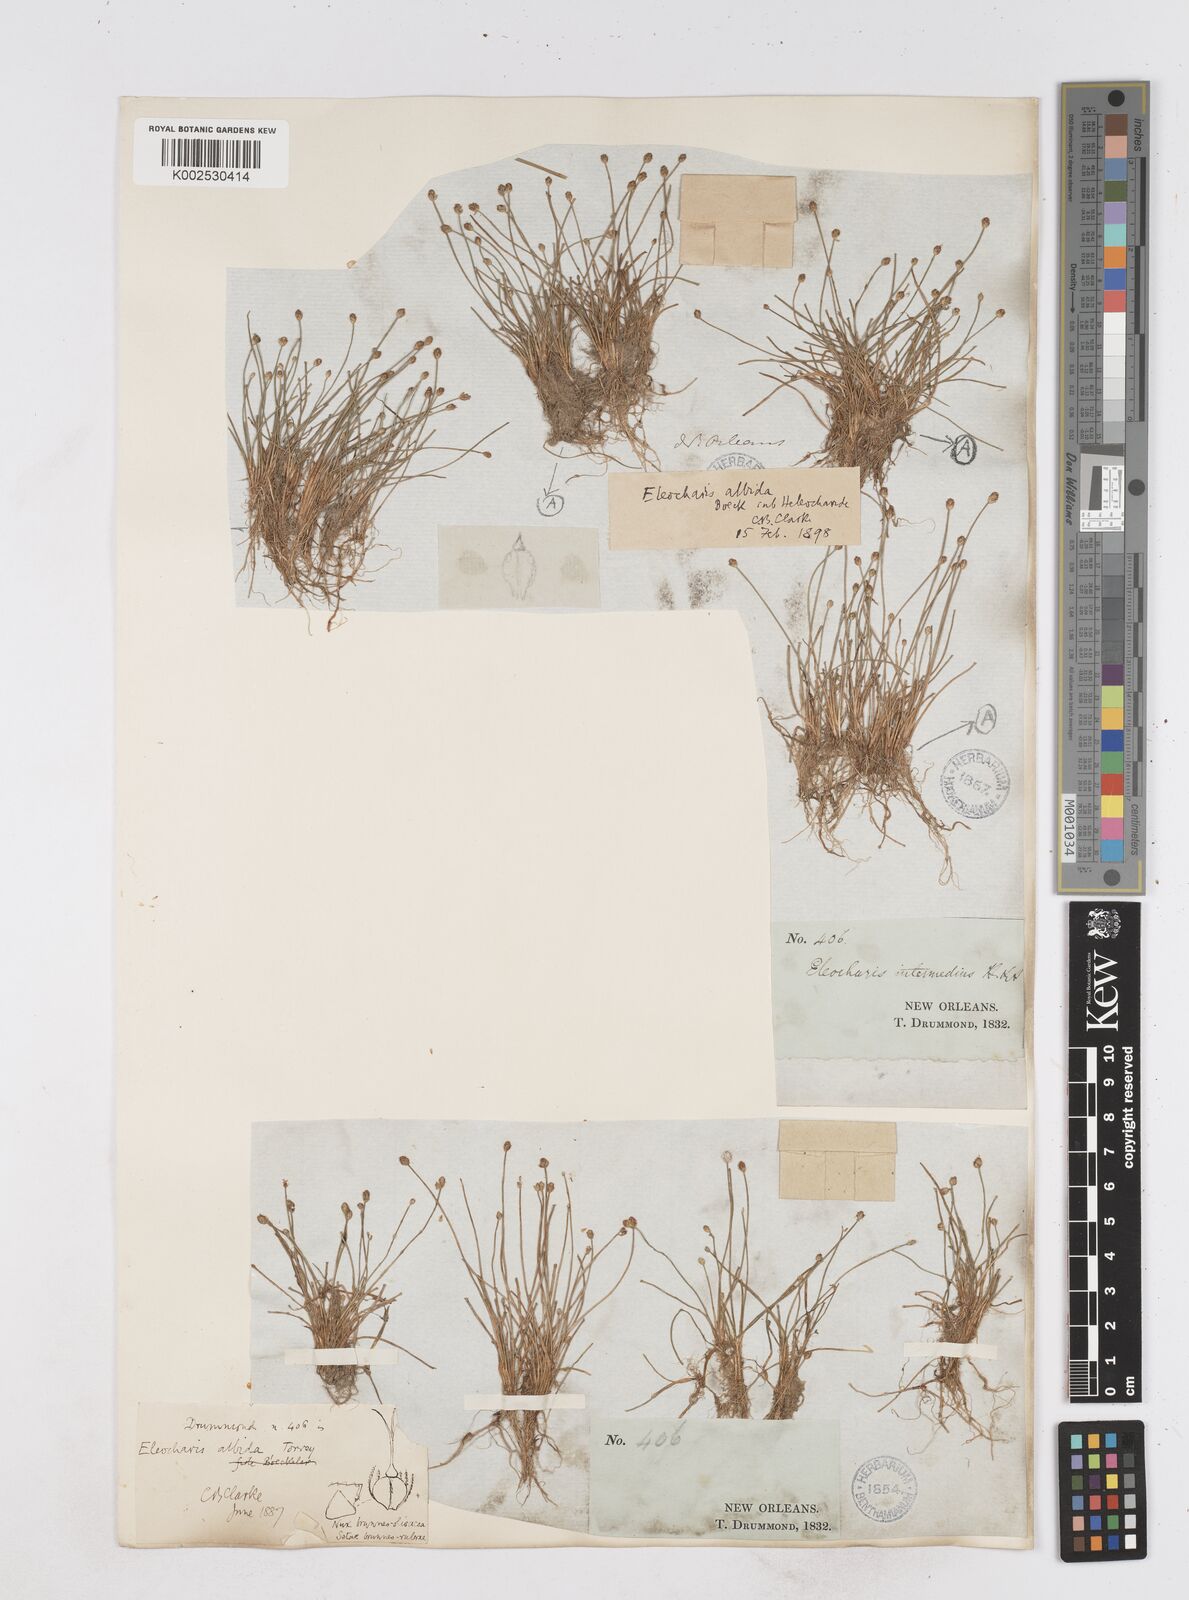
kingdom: Plantae
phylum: Tracheophyta
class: Liliopsida
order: Poales
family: Cyperaceae
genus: Eleocharis
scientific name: Eleocharis albida
